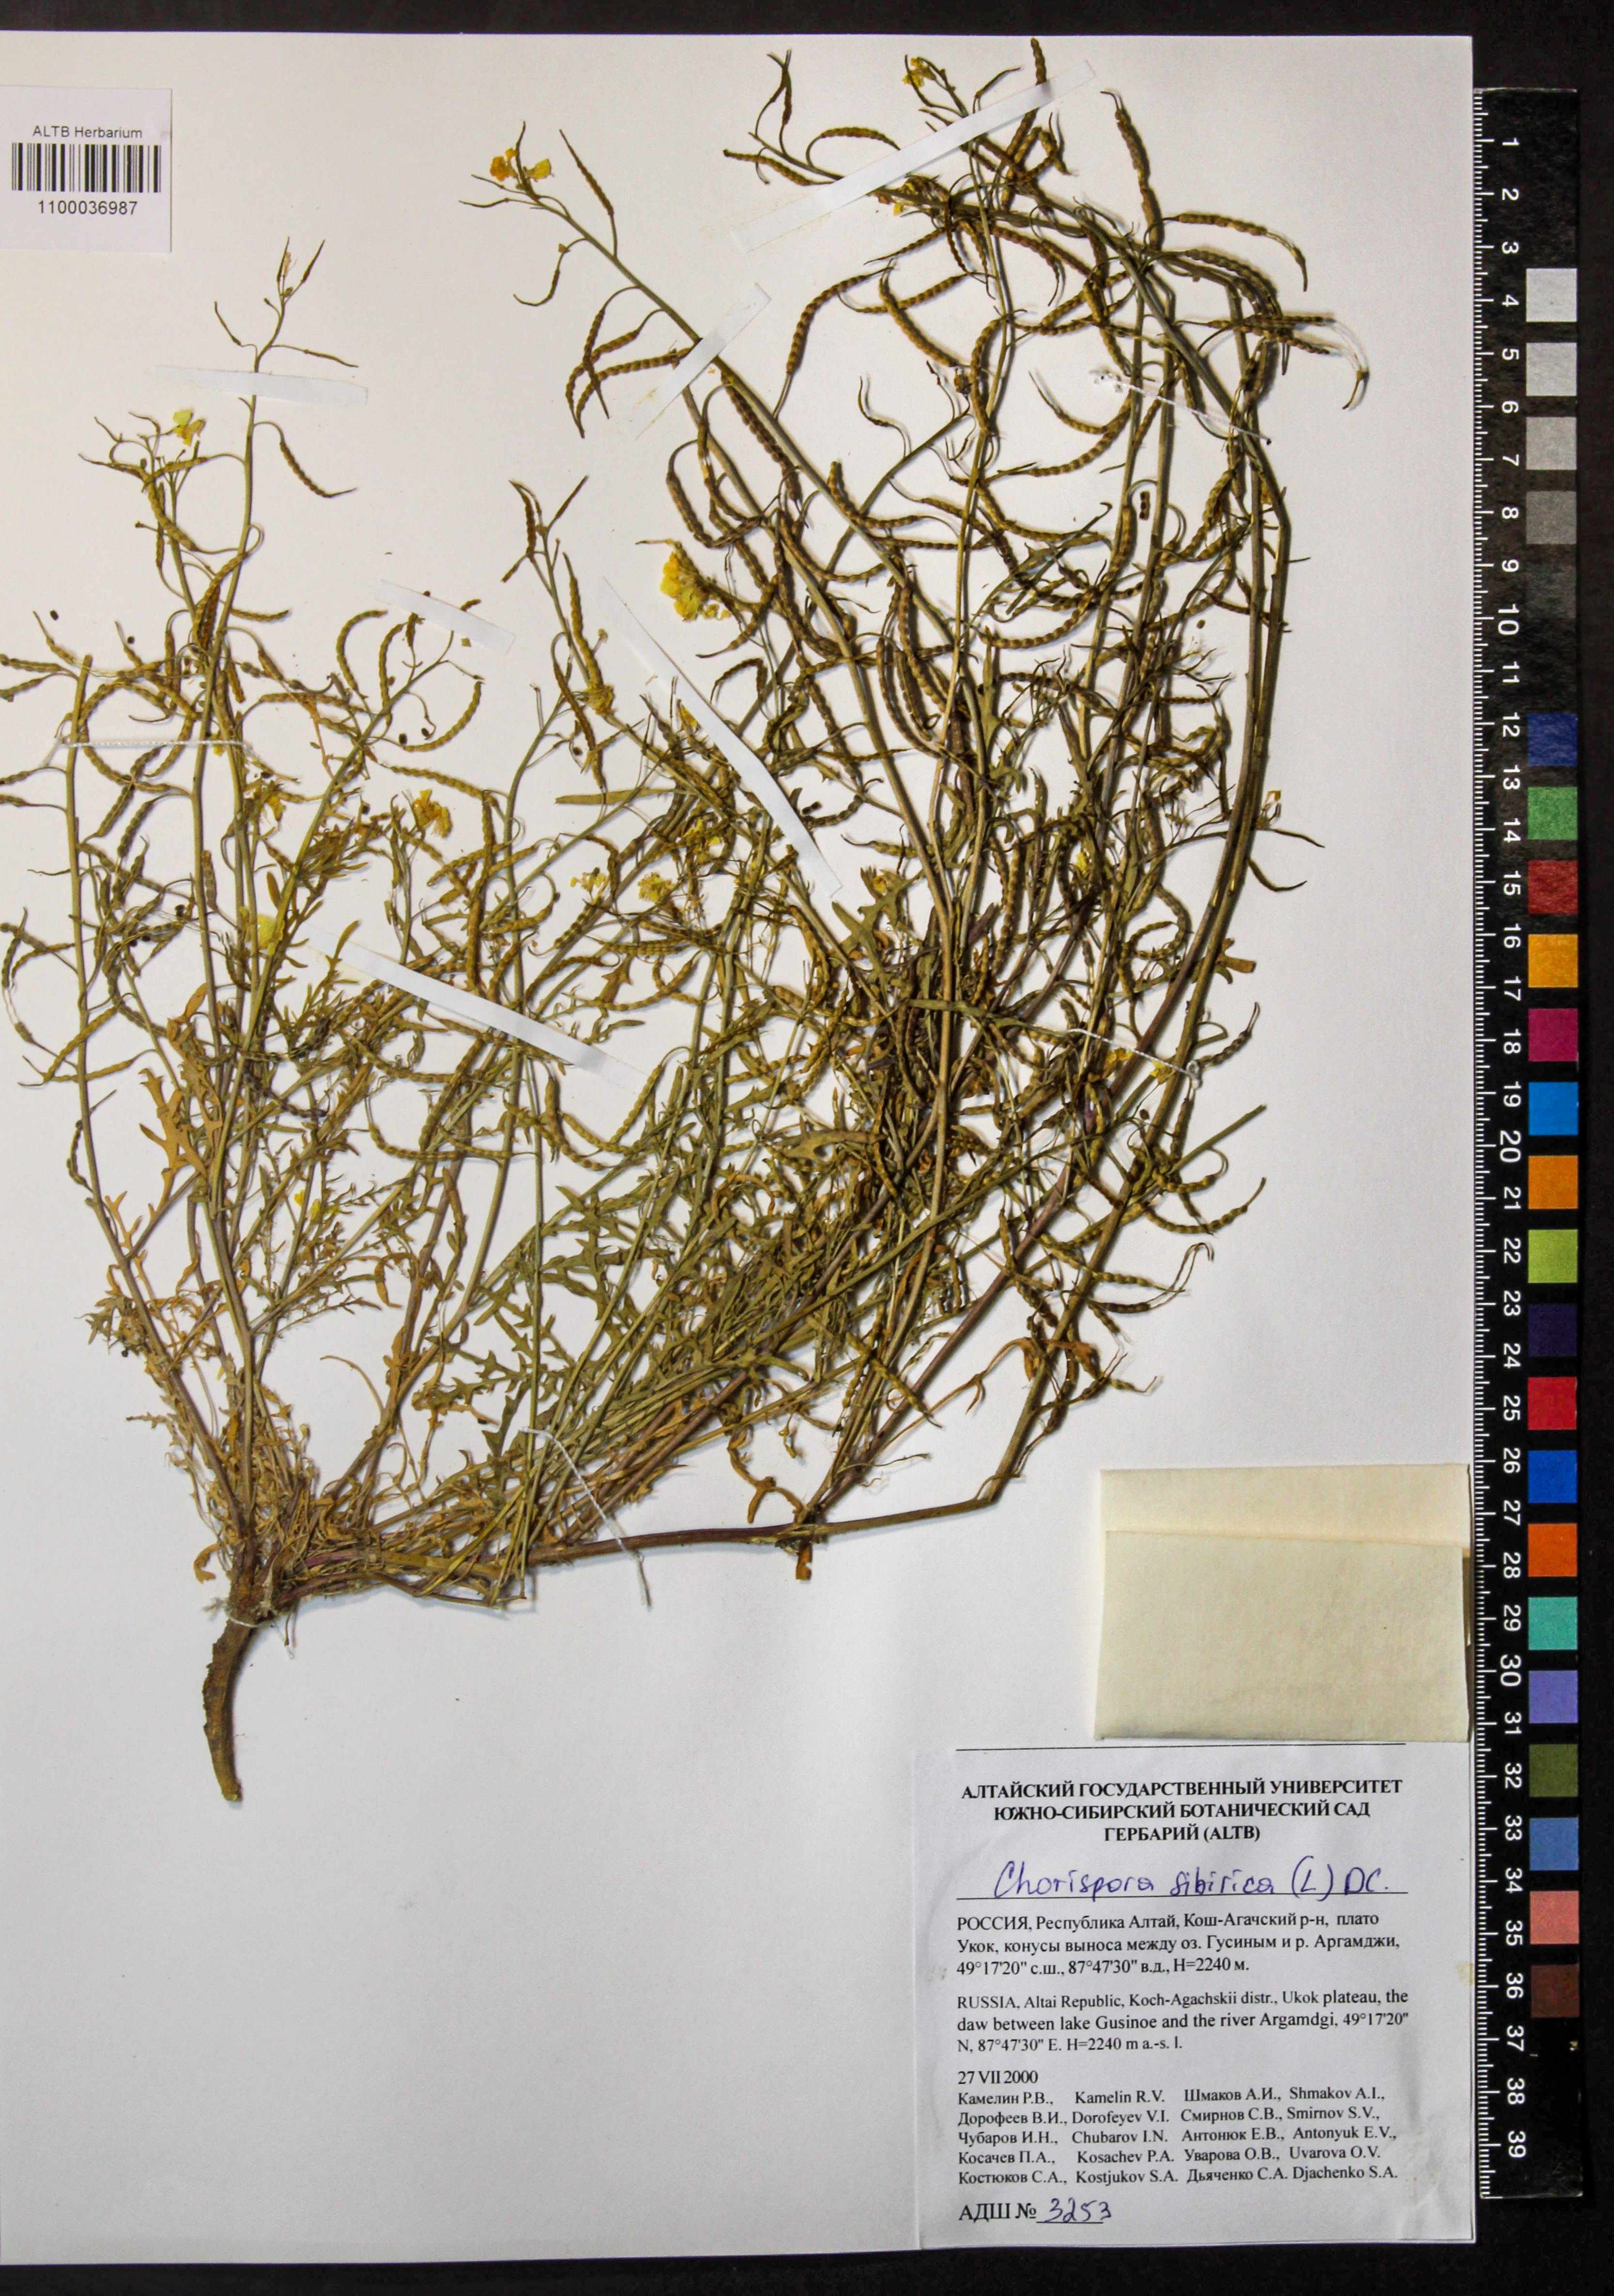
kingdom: Plantae
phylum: Tracheophyta
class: Magnoliopsida
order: Brassicales
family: Brassicaceae
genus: Chorispora
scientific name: Chorispora sibirica
